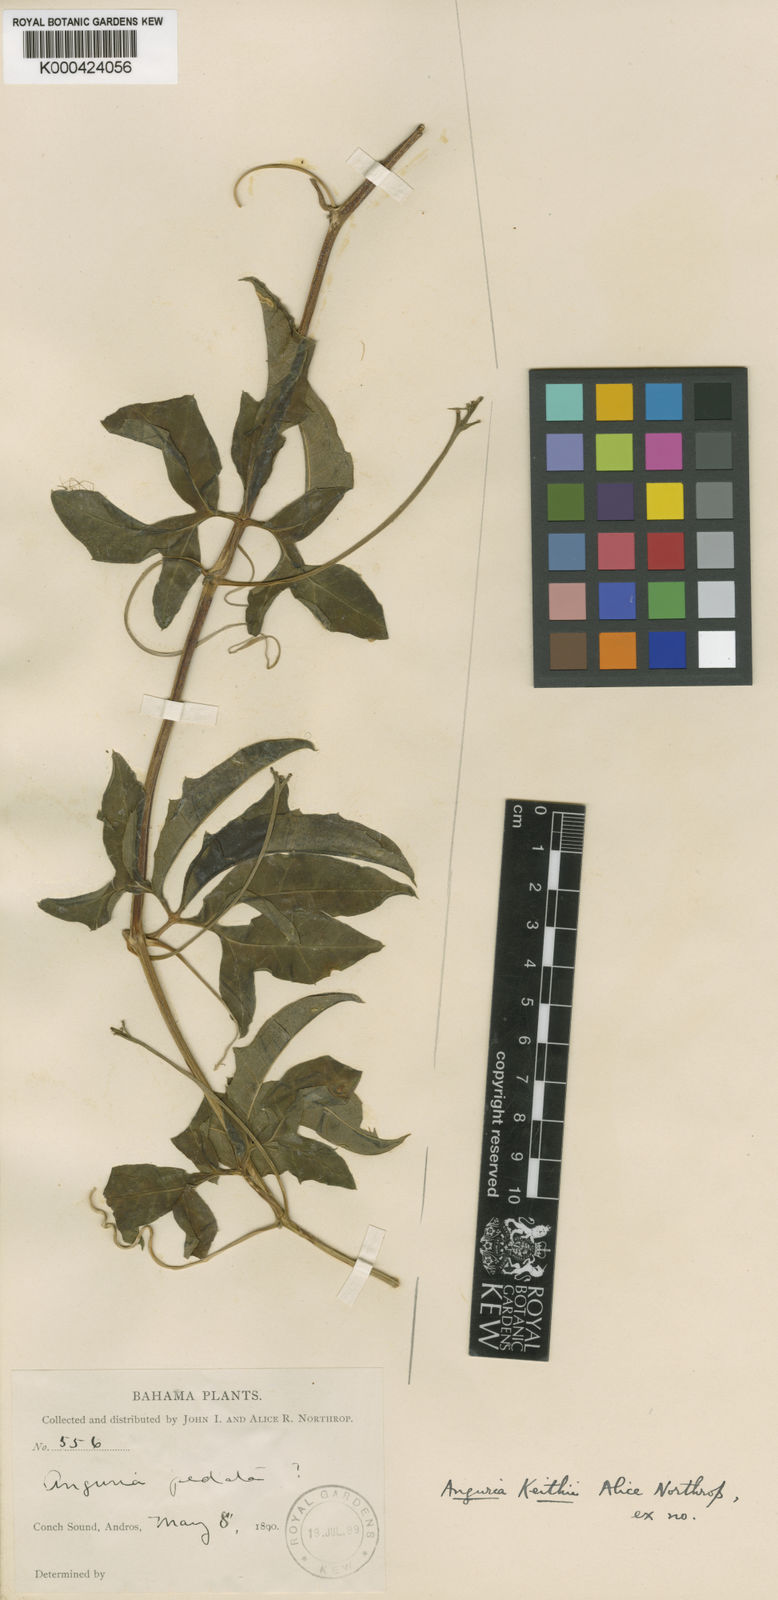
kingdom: Plantae
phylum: Tracheophyta
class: Magnoliopsida
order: Cucurbitales
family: Cucurbitaceae
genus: Psiguria
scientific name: Psiguria pedata
